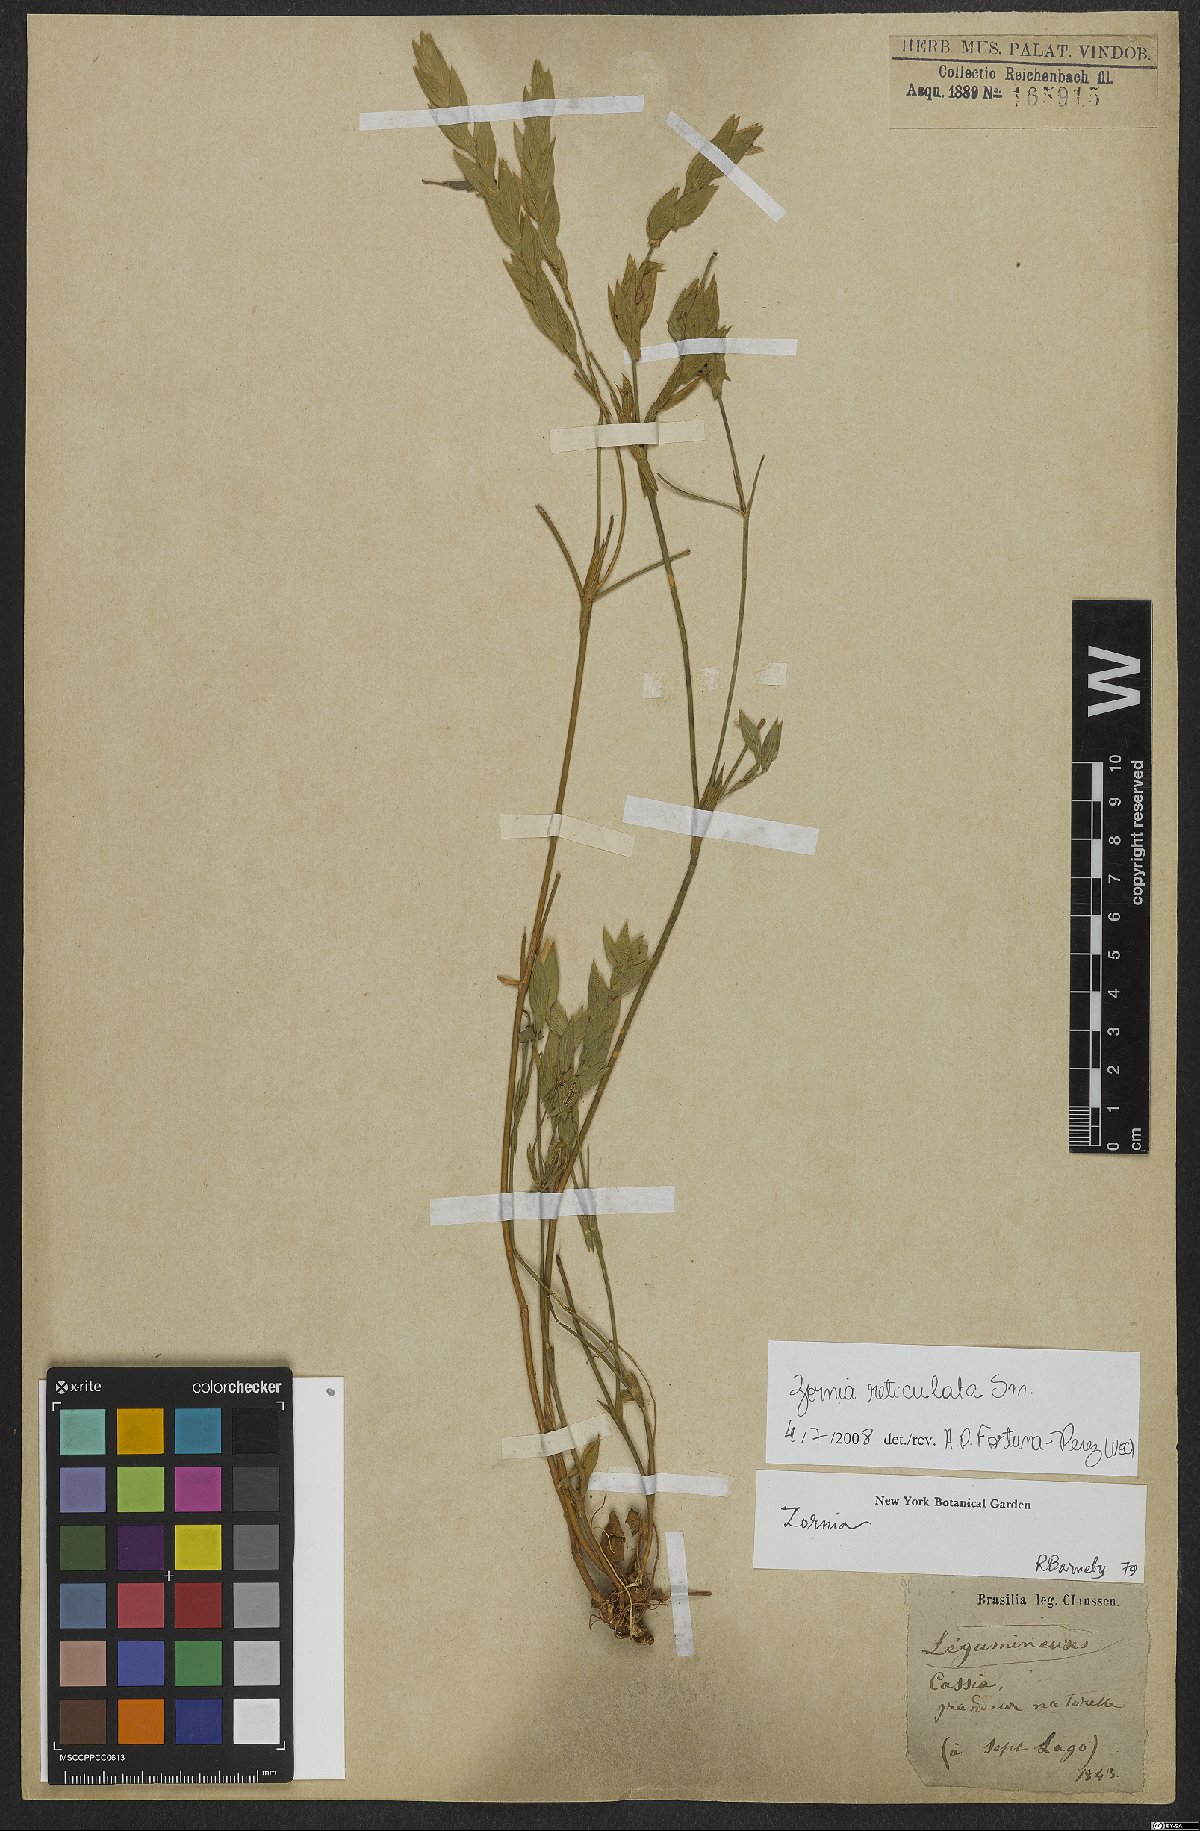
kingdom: Plantae
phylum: Tracheophyta
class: Magnoliopsida
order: Fabales
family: Fabaceae
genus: Zornia
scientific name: Zornia reticulata
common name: Reticulate viperina
